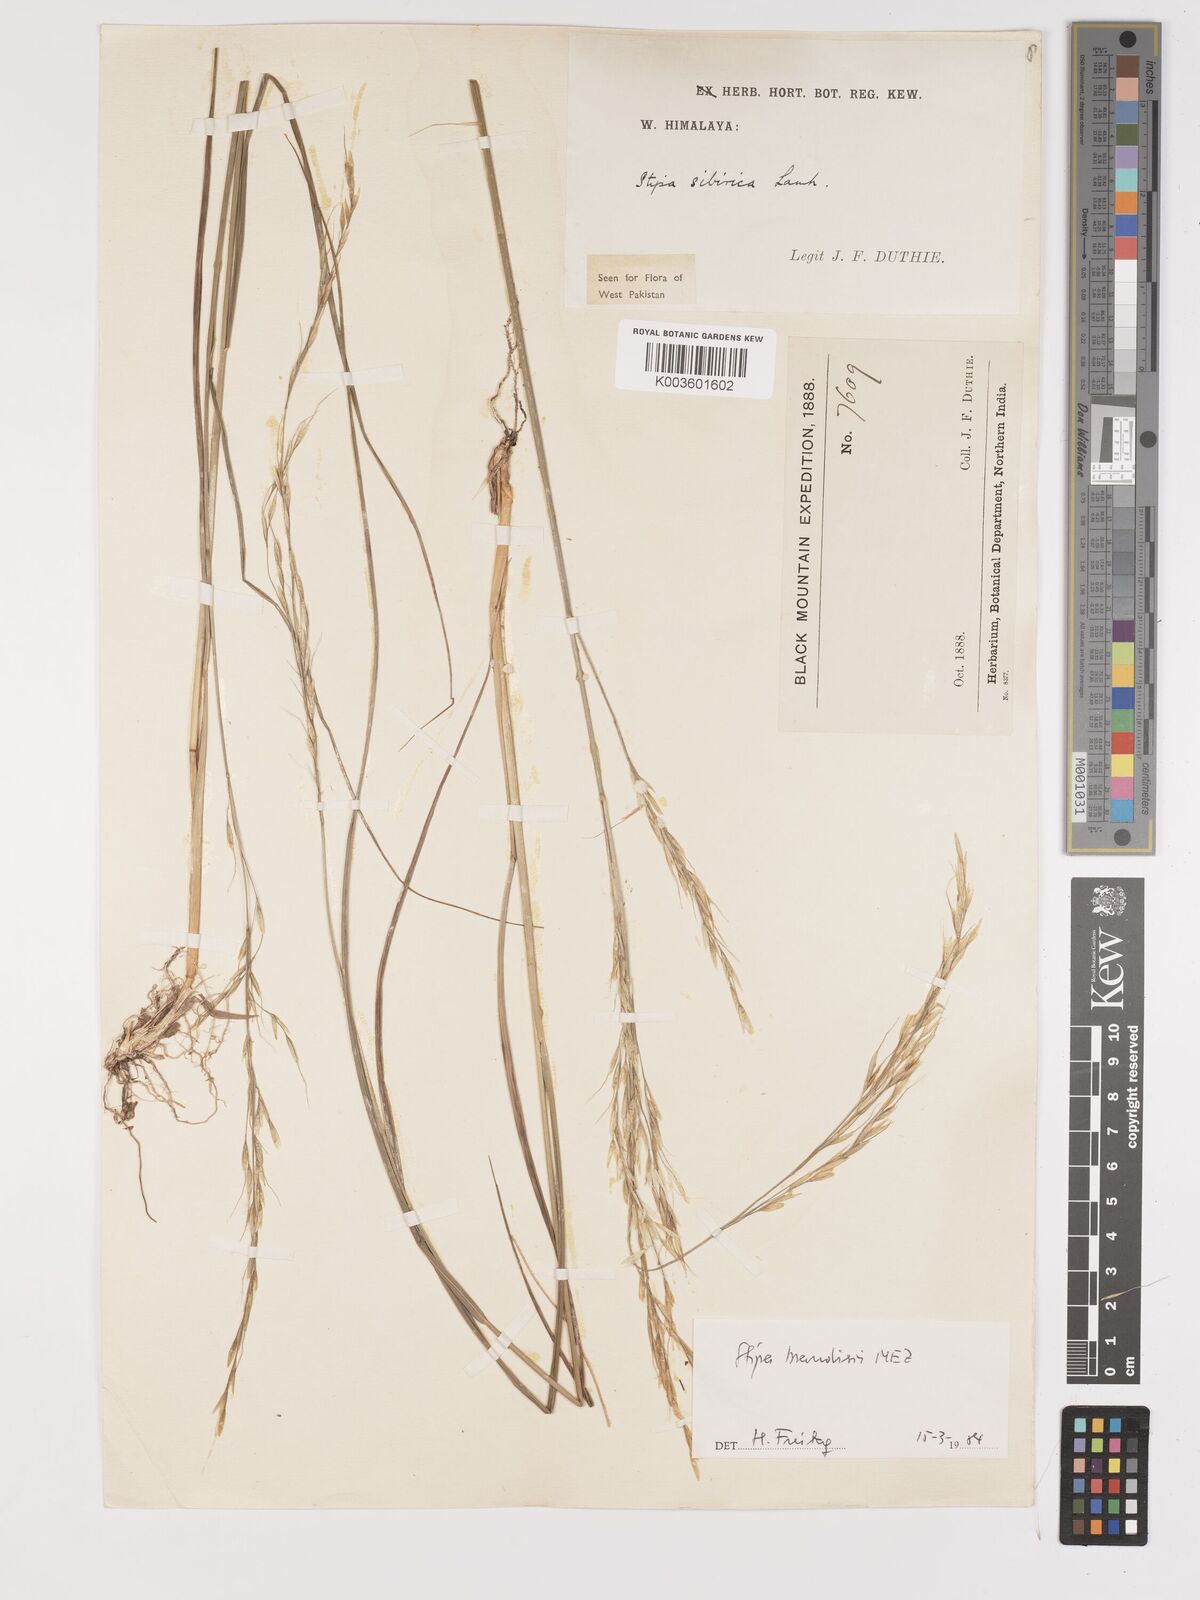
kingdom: Plantae
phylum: Tracheophyta
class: Liliopsida
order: Poales
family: Poaceae
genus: Achnatherum
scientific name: Achnatherum brandisii
